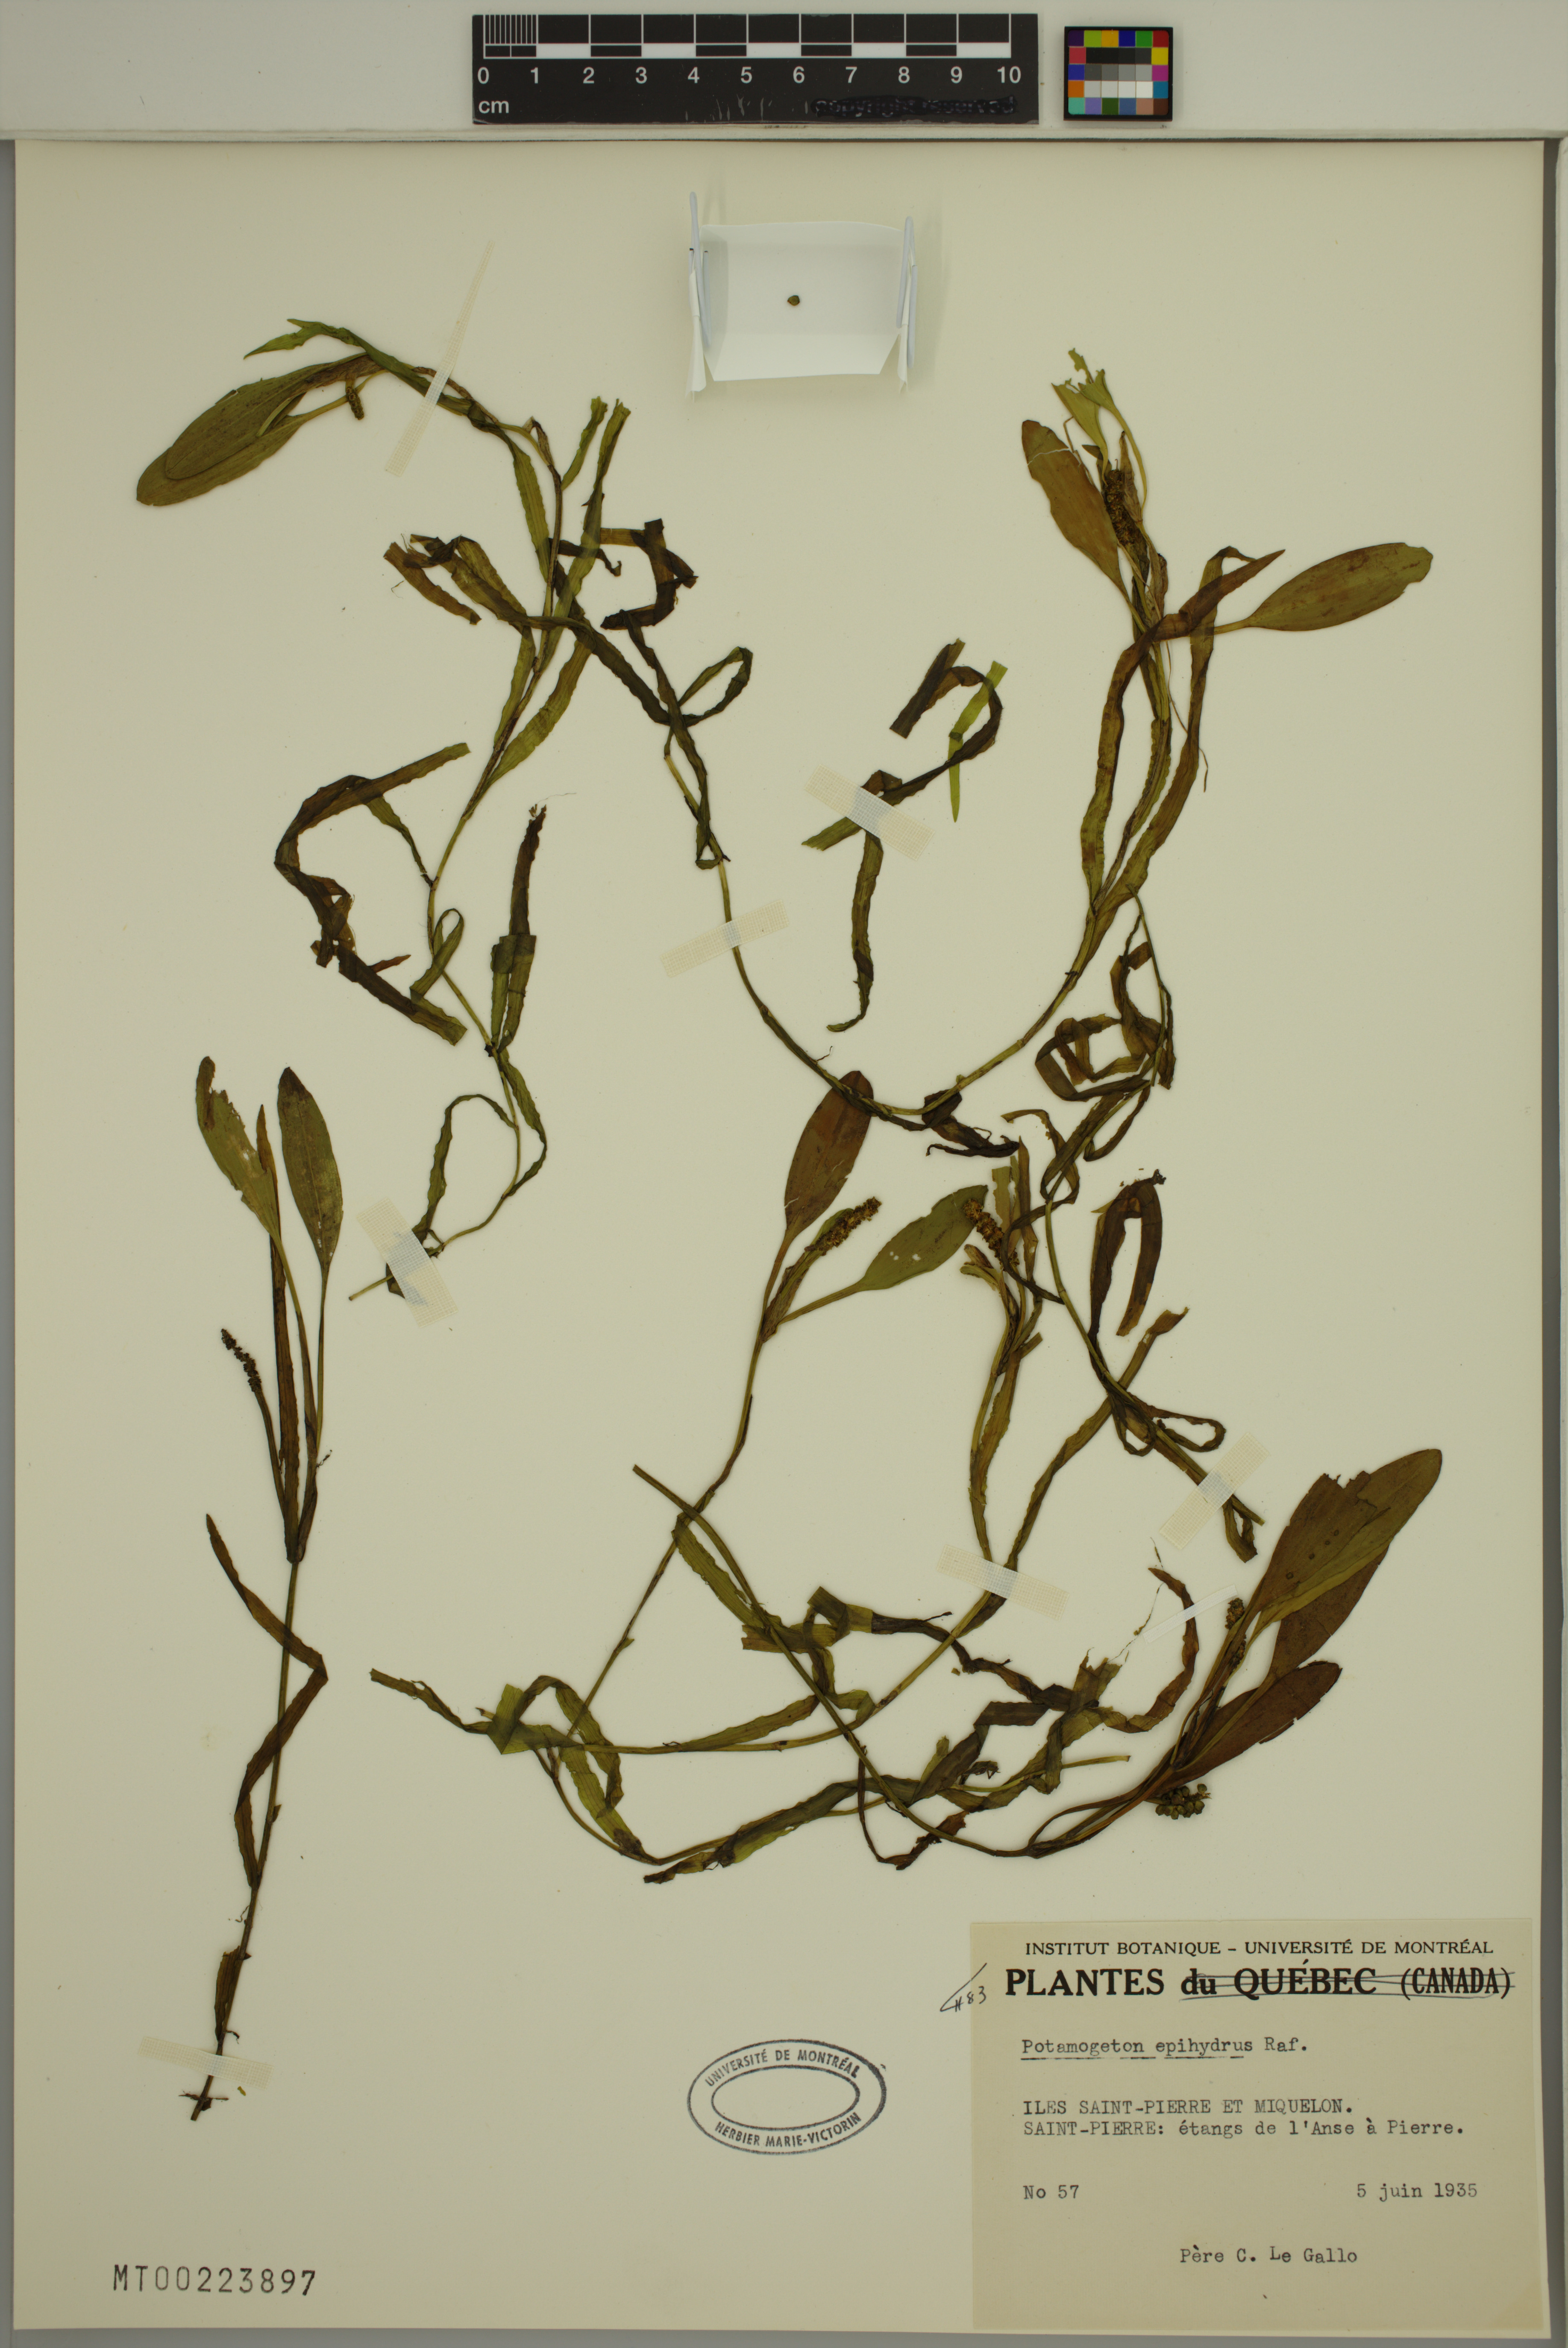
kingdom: Plantae
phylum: Tracheophyta
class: Liliopsida
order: Alismatales
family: Potamogetonaceae
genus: Potamogeton
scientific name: Potamogeton epihydrus
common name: American pondweed
